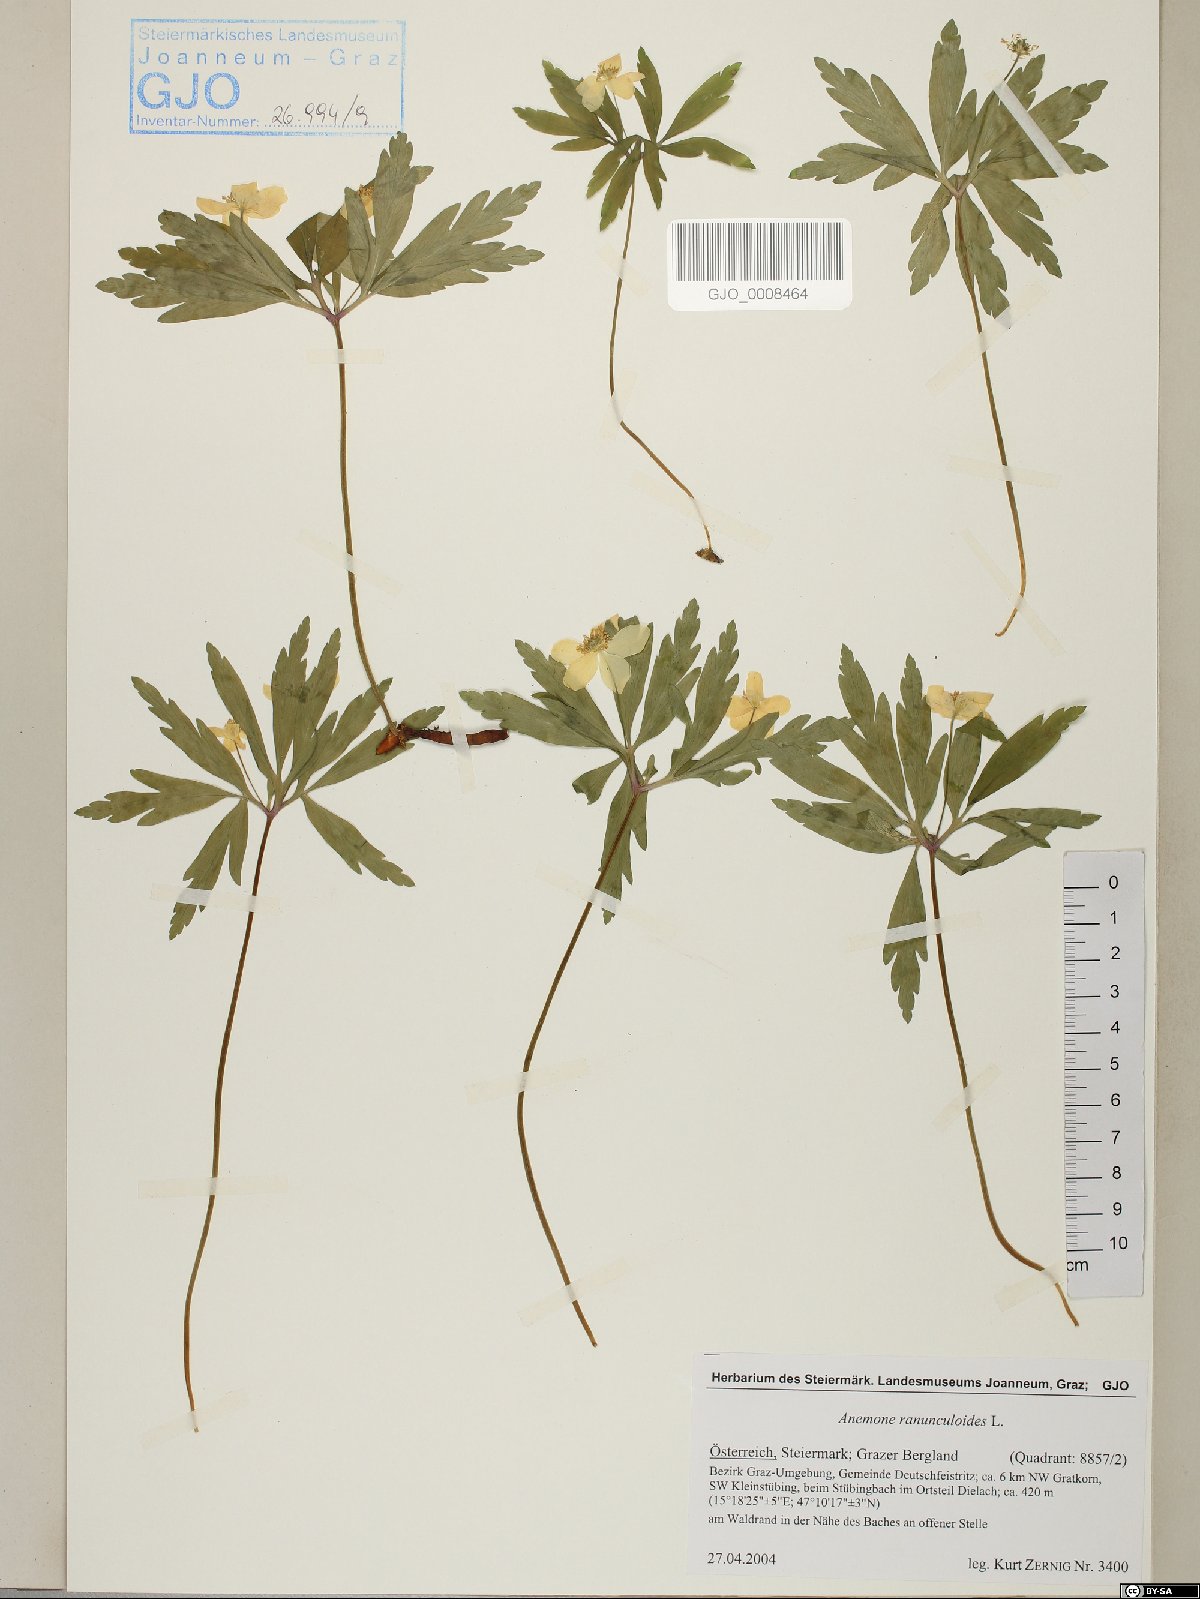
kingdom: Plantae
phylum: Tracheophyta
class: Magnoliopsida
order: Ranunculales
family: Ranunculaceae
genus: Anemone
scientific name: Anemone ranunculoides
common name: Yellow anemone
